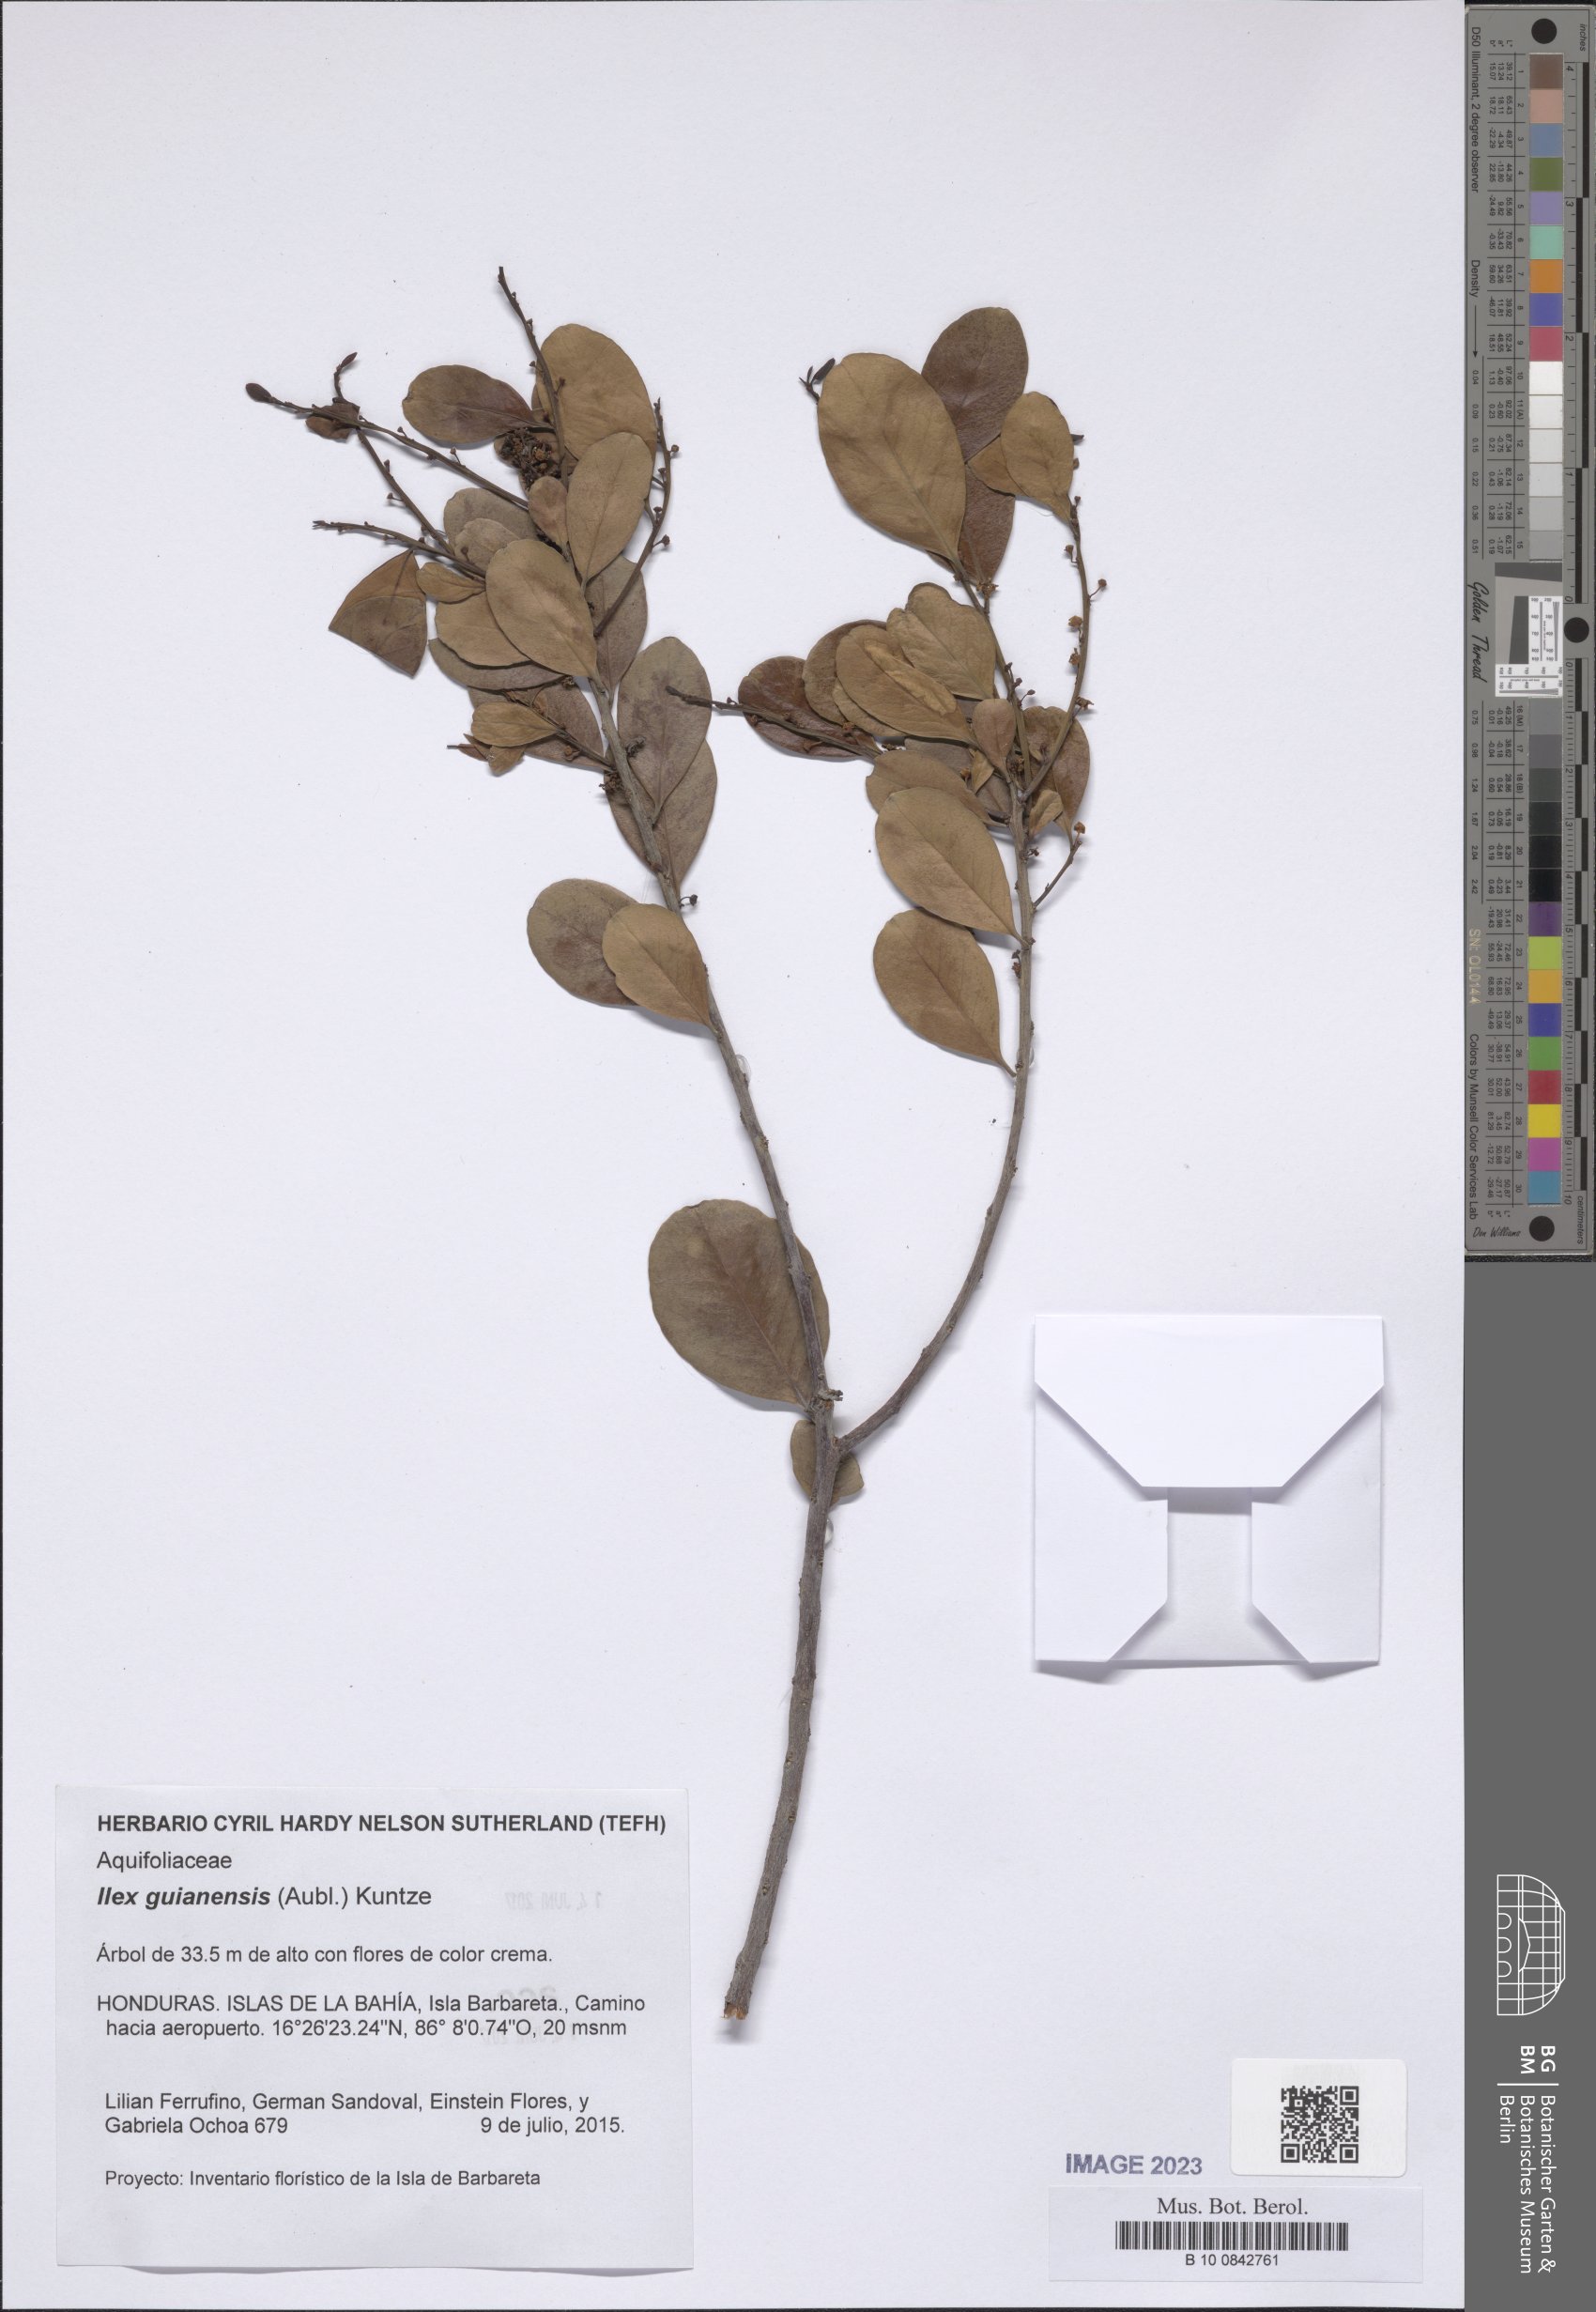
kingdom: Plantae
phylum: Tracheophyta
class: Magnoliopsida
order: Aquifoliales
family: Aquifoliaceae
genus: Ilex
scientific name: Ilex guianensis
